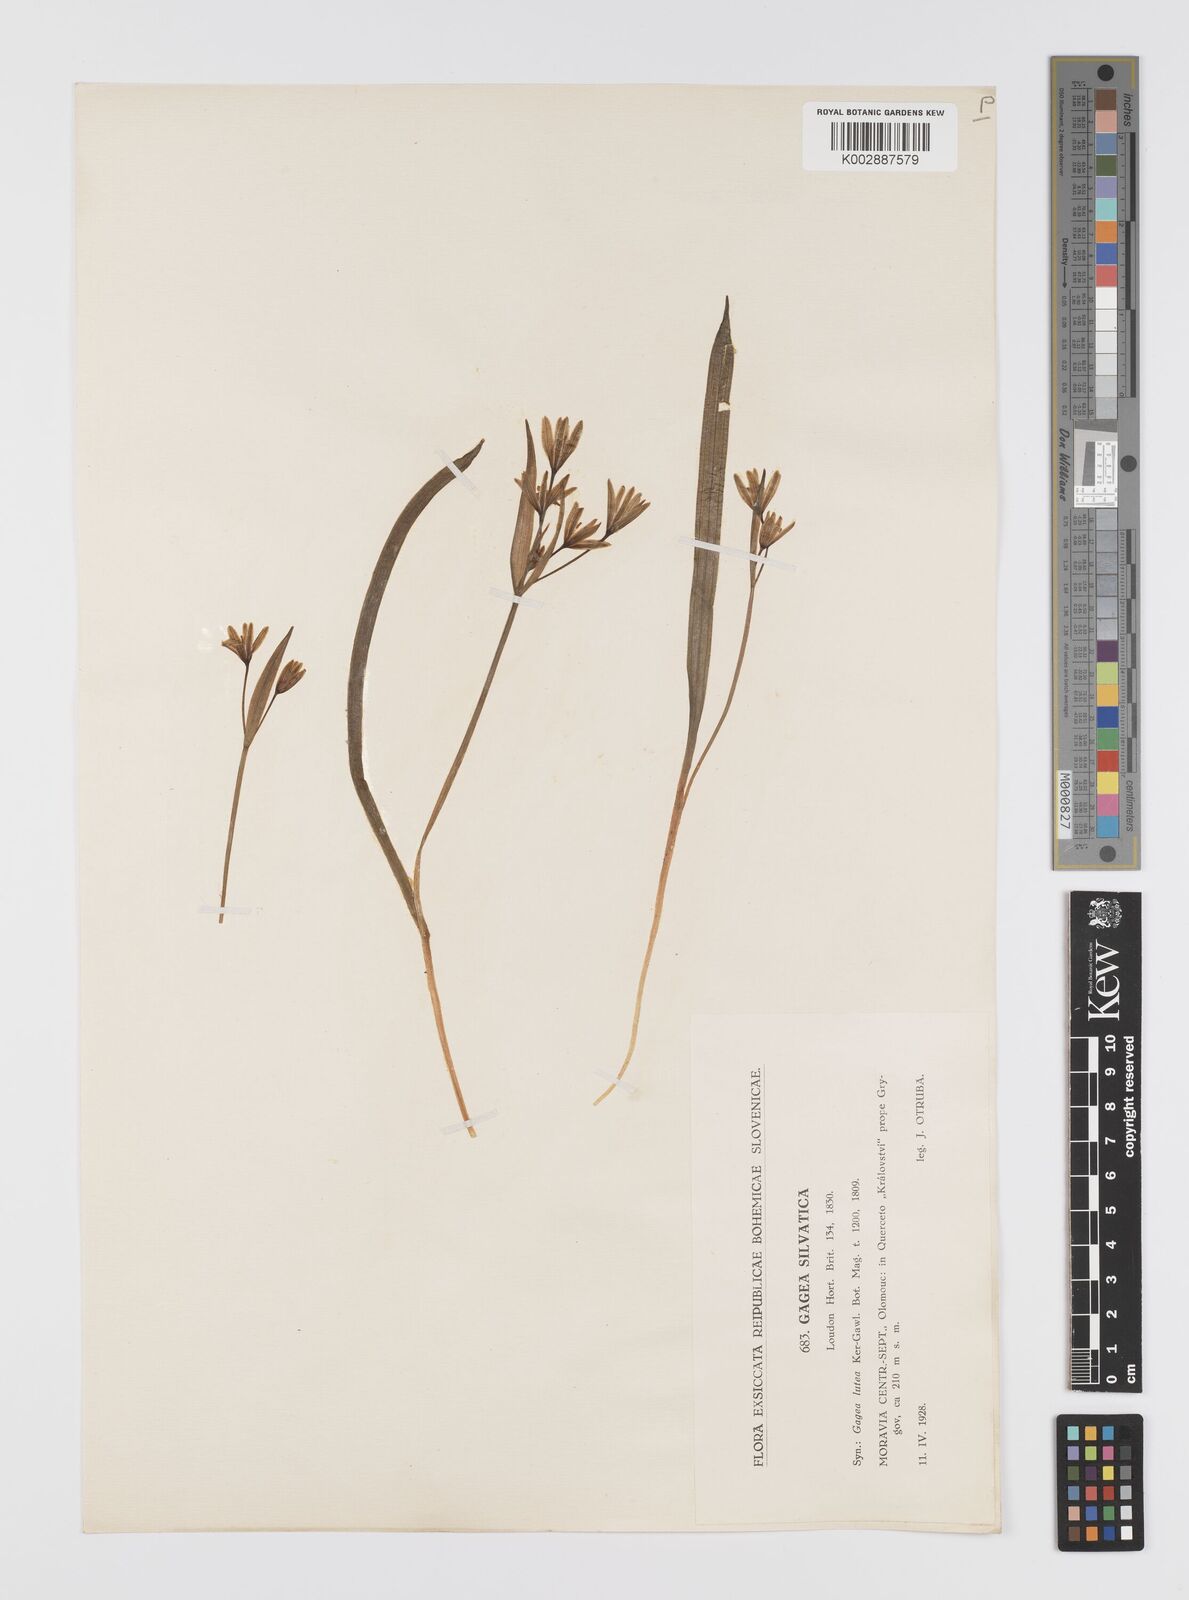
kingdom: Plantae
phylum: Tracheophyta
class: Liliopsida
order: Liliales
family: Liliaceae
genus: Gagea
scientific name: Gagea lutea
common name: Yellow star-of-bethlehem
